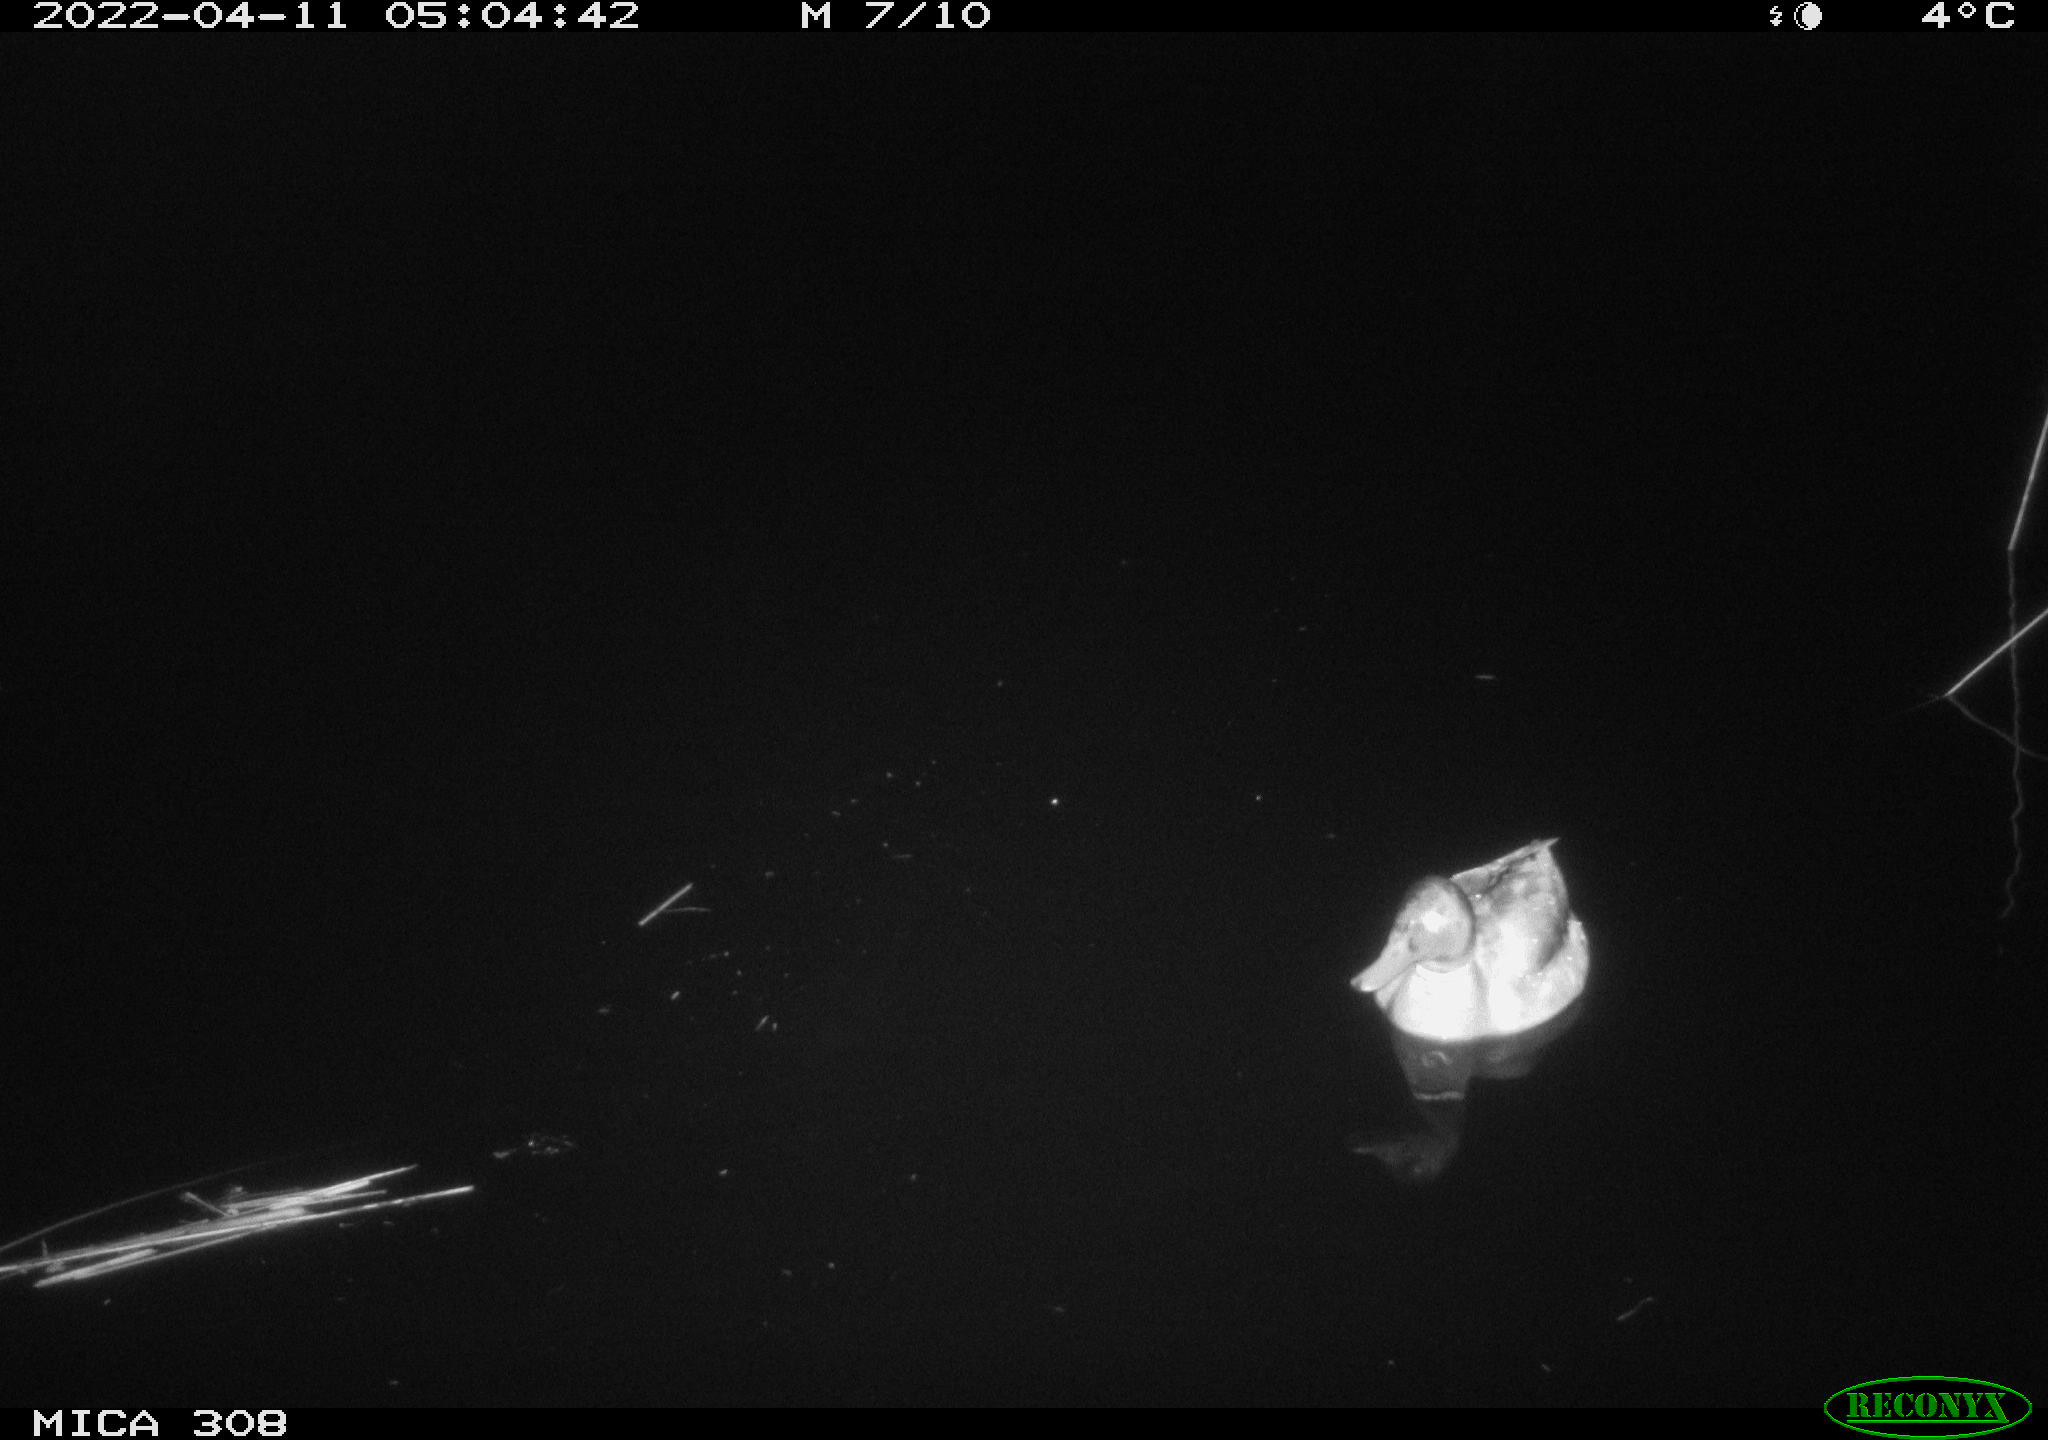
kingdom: Animalia
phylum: Chordata
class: Aves
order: Anseriformes
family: Anatidae
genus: Anas
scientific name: Anas platyrhynchos
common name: Mallard
